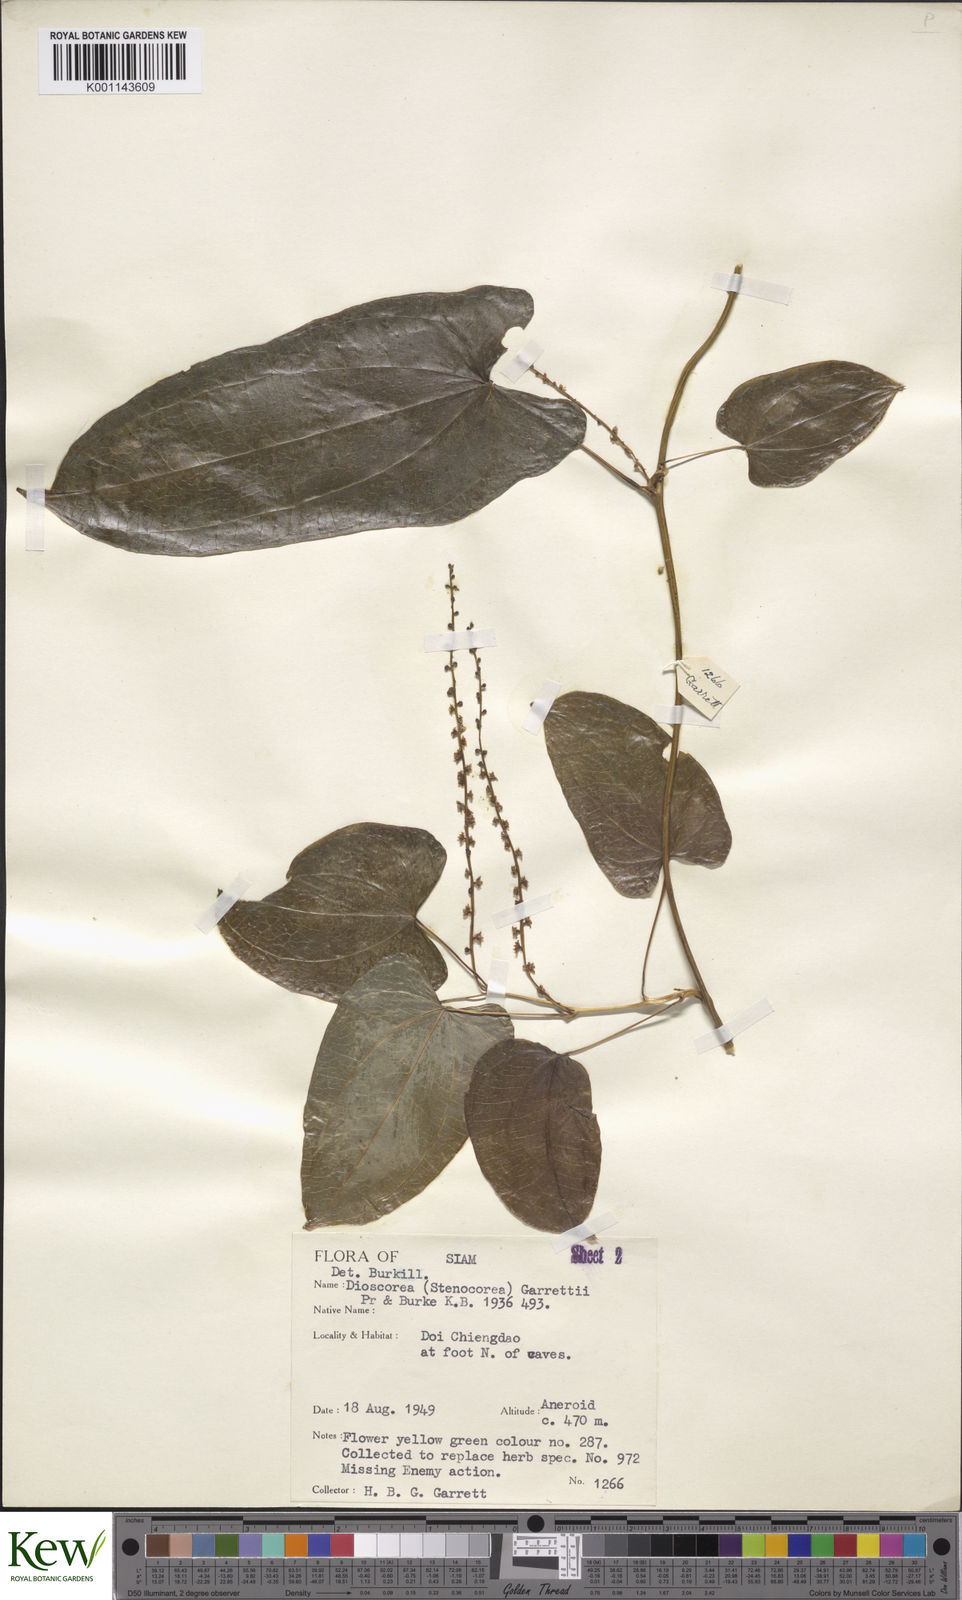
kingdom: Plantae
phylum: Tracheophyta
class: Liliopsida
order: Dioscoreales
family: Dioscoreaceae
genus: Dioscorea
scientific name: Dioscorea garrettii
